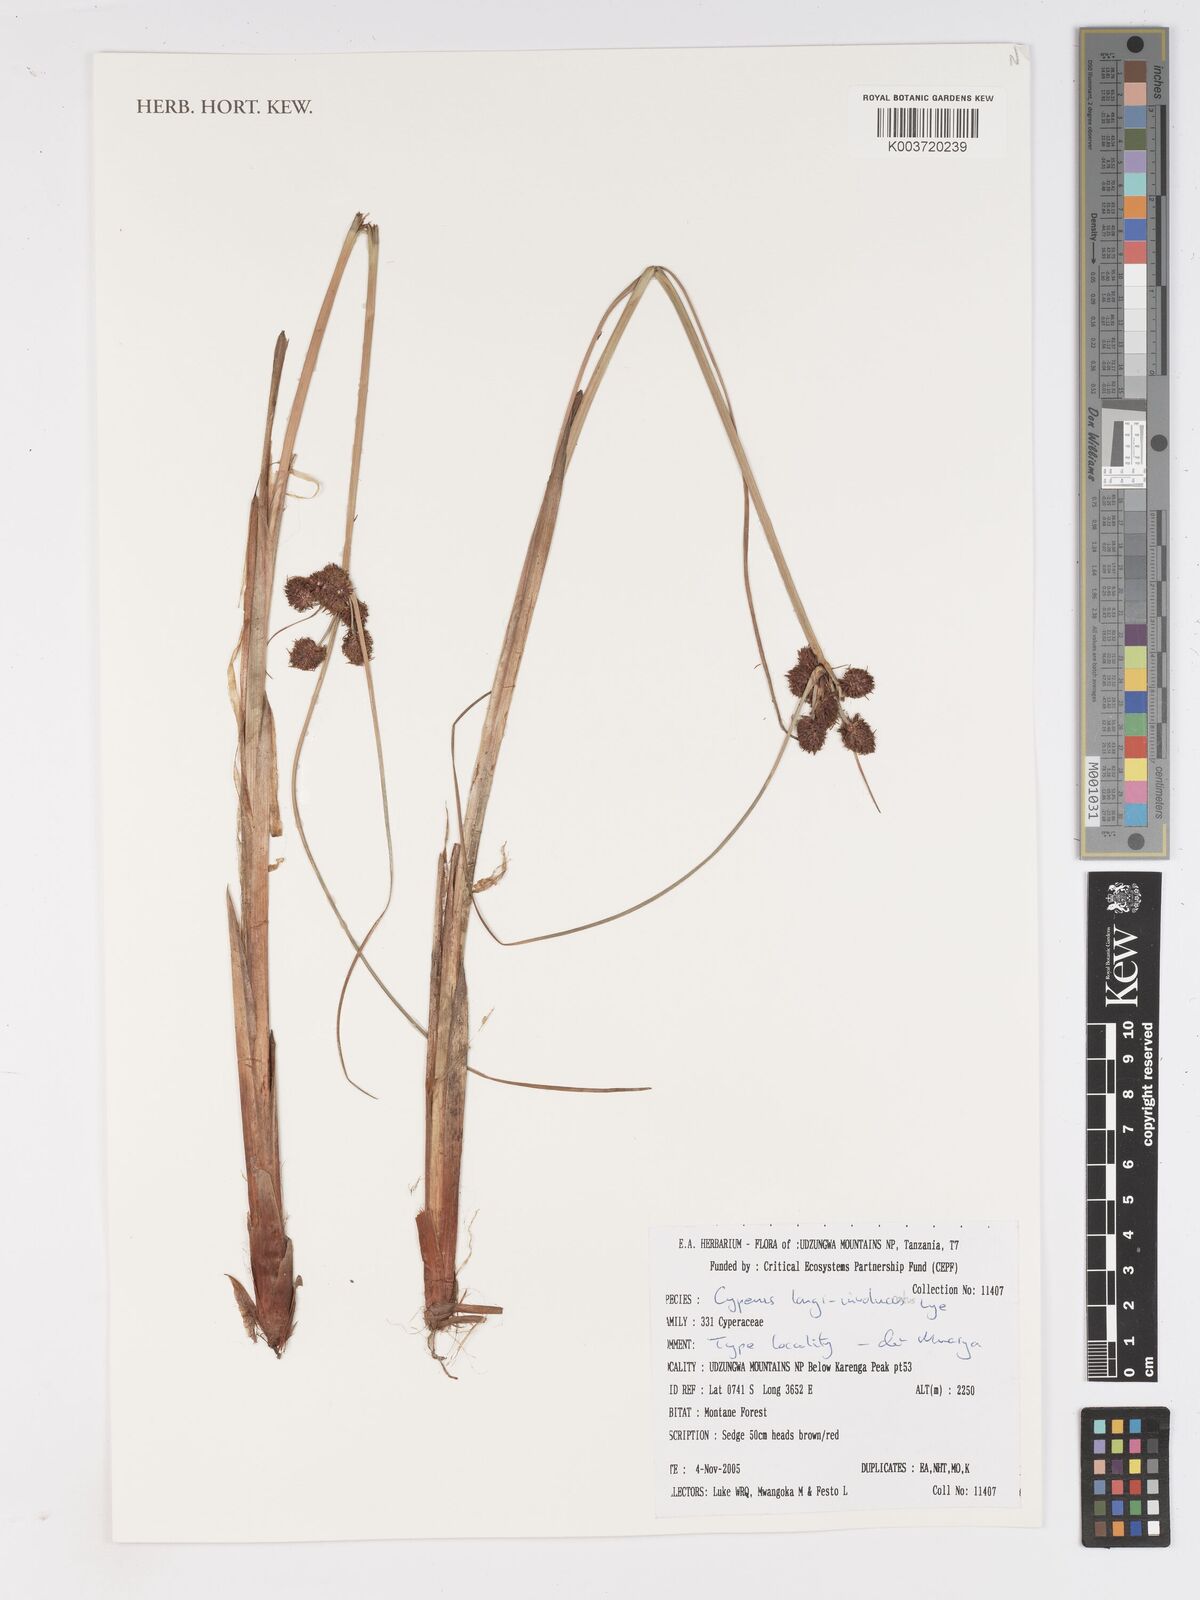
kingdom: Plantae
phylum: Tracheophyta
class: Liliopsida
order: Poales
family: Cyperaceae
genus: Cyperus
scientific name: Cyperus longi-involucratus
